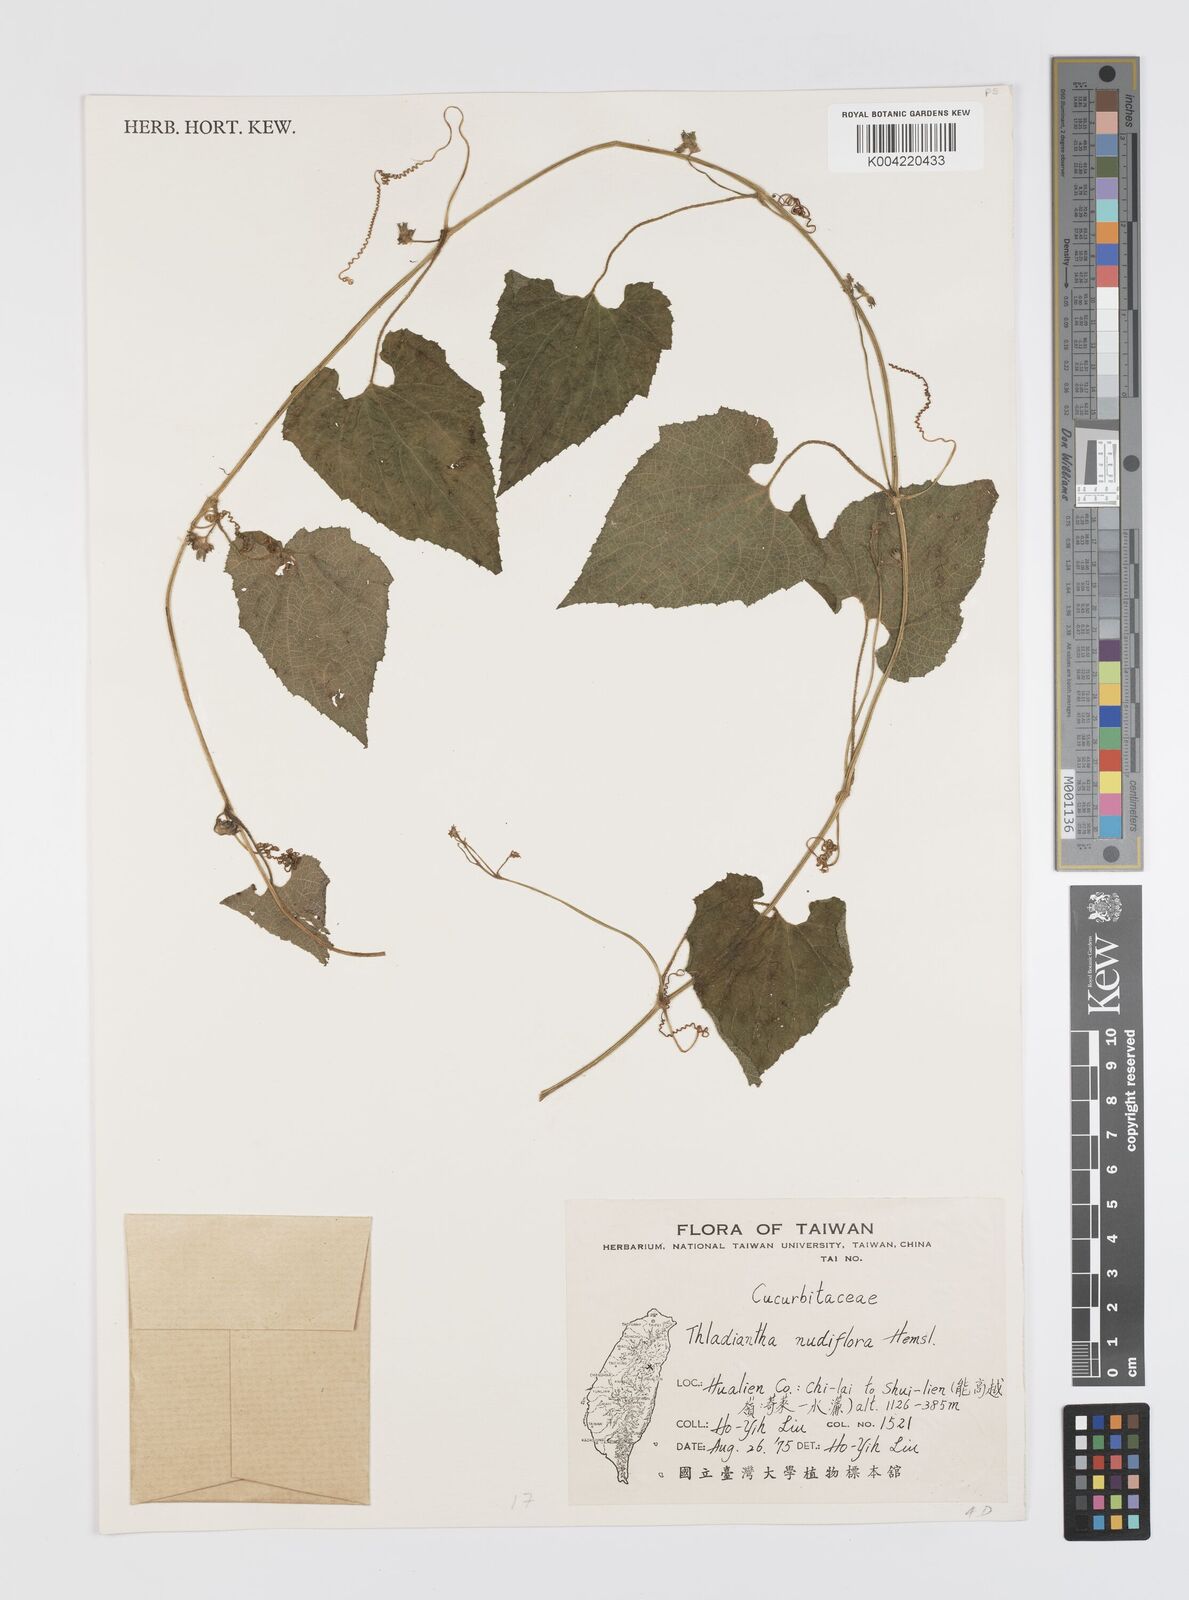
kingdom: Plantae
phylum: Tracheophyta
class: Magnoliopsida
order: Cucurbitales
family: Cucurbitaceae
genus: Thladiantha
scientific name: Thladiantha nudiflora
